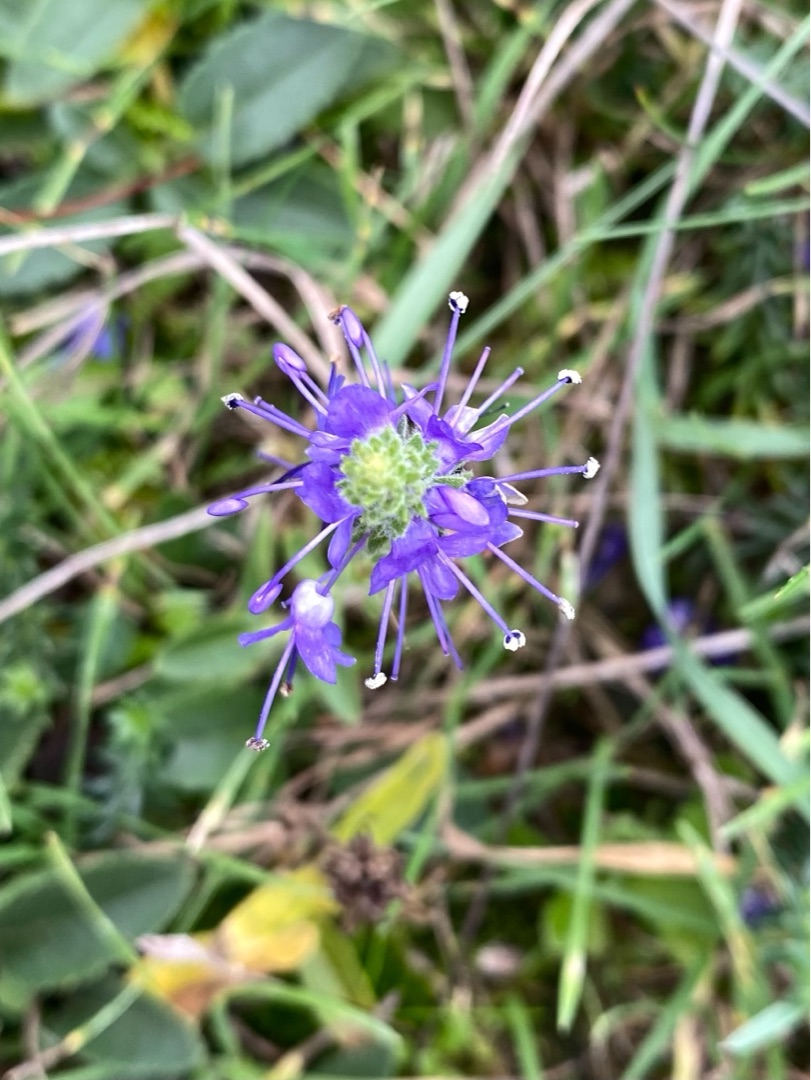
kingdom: Plantae
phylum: Tracheophyta
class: Magnoliopsida
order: Lamiales
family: Plantaginaceae
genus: Veronica
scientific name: Veronica spicata
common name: Aks-ærenpris
